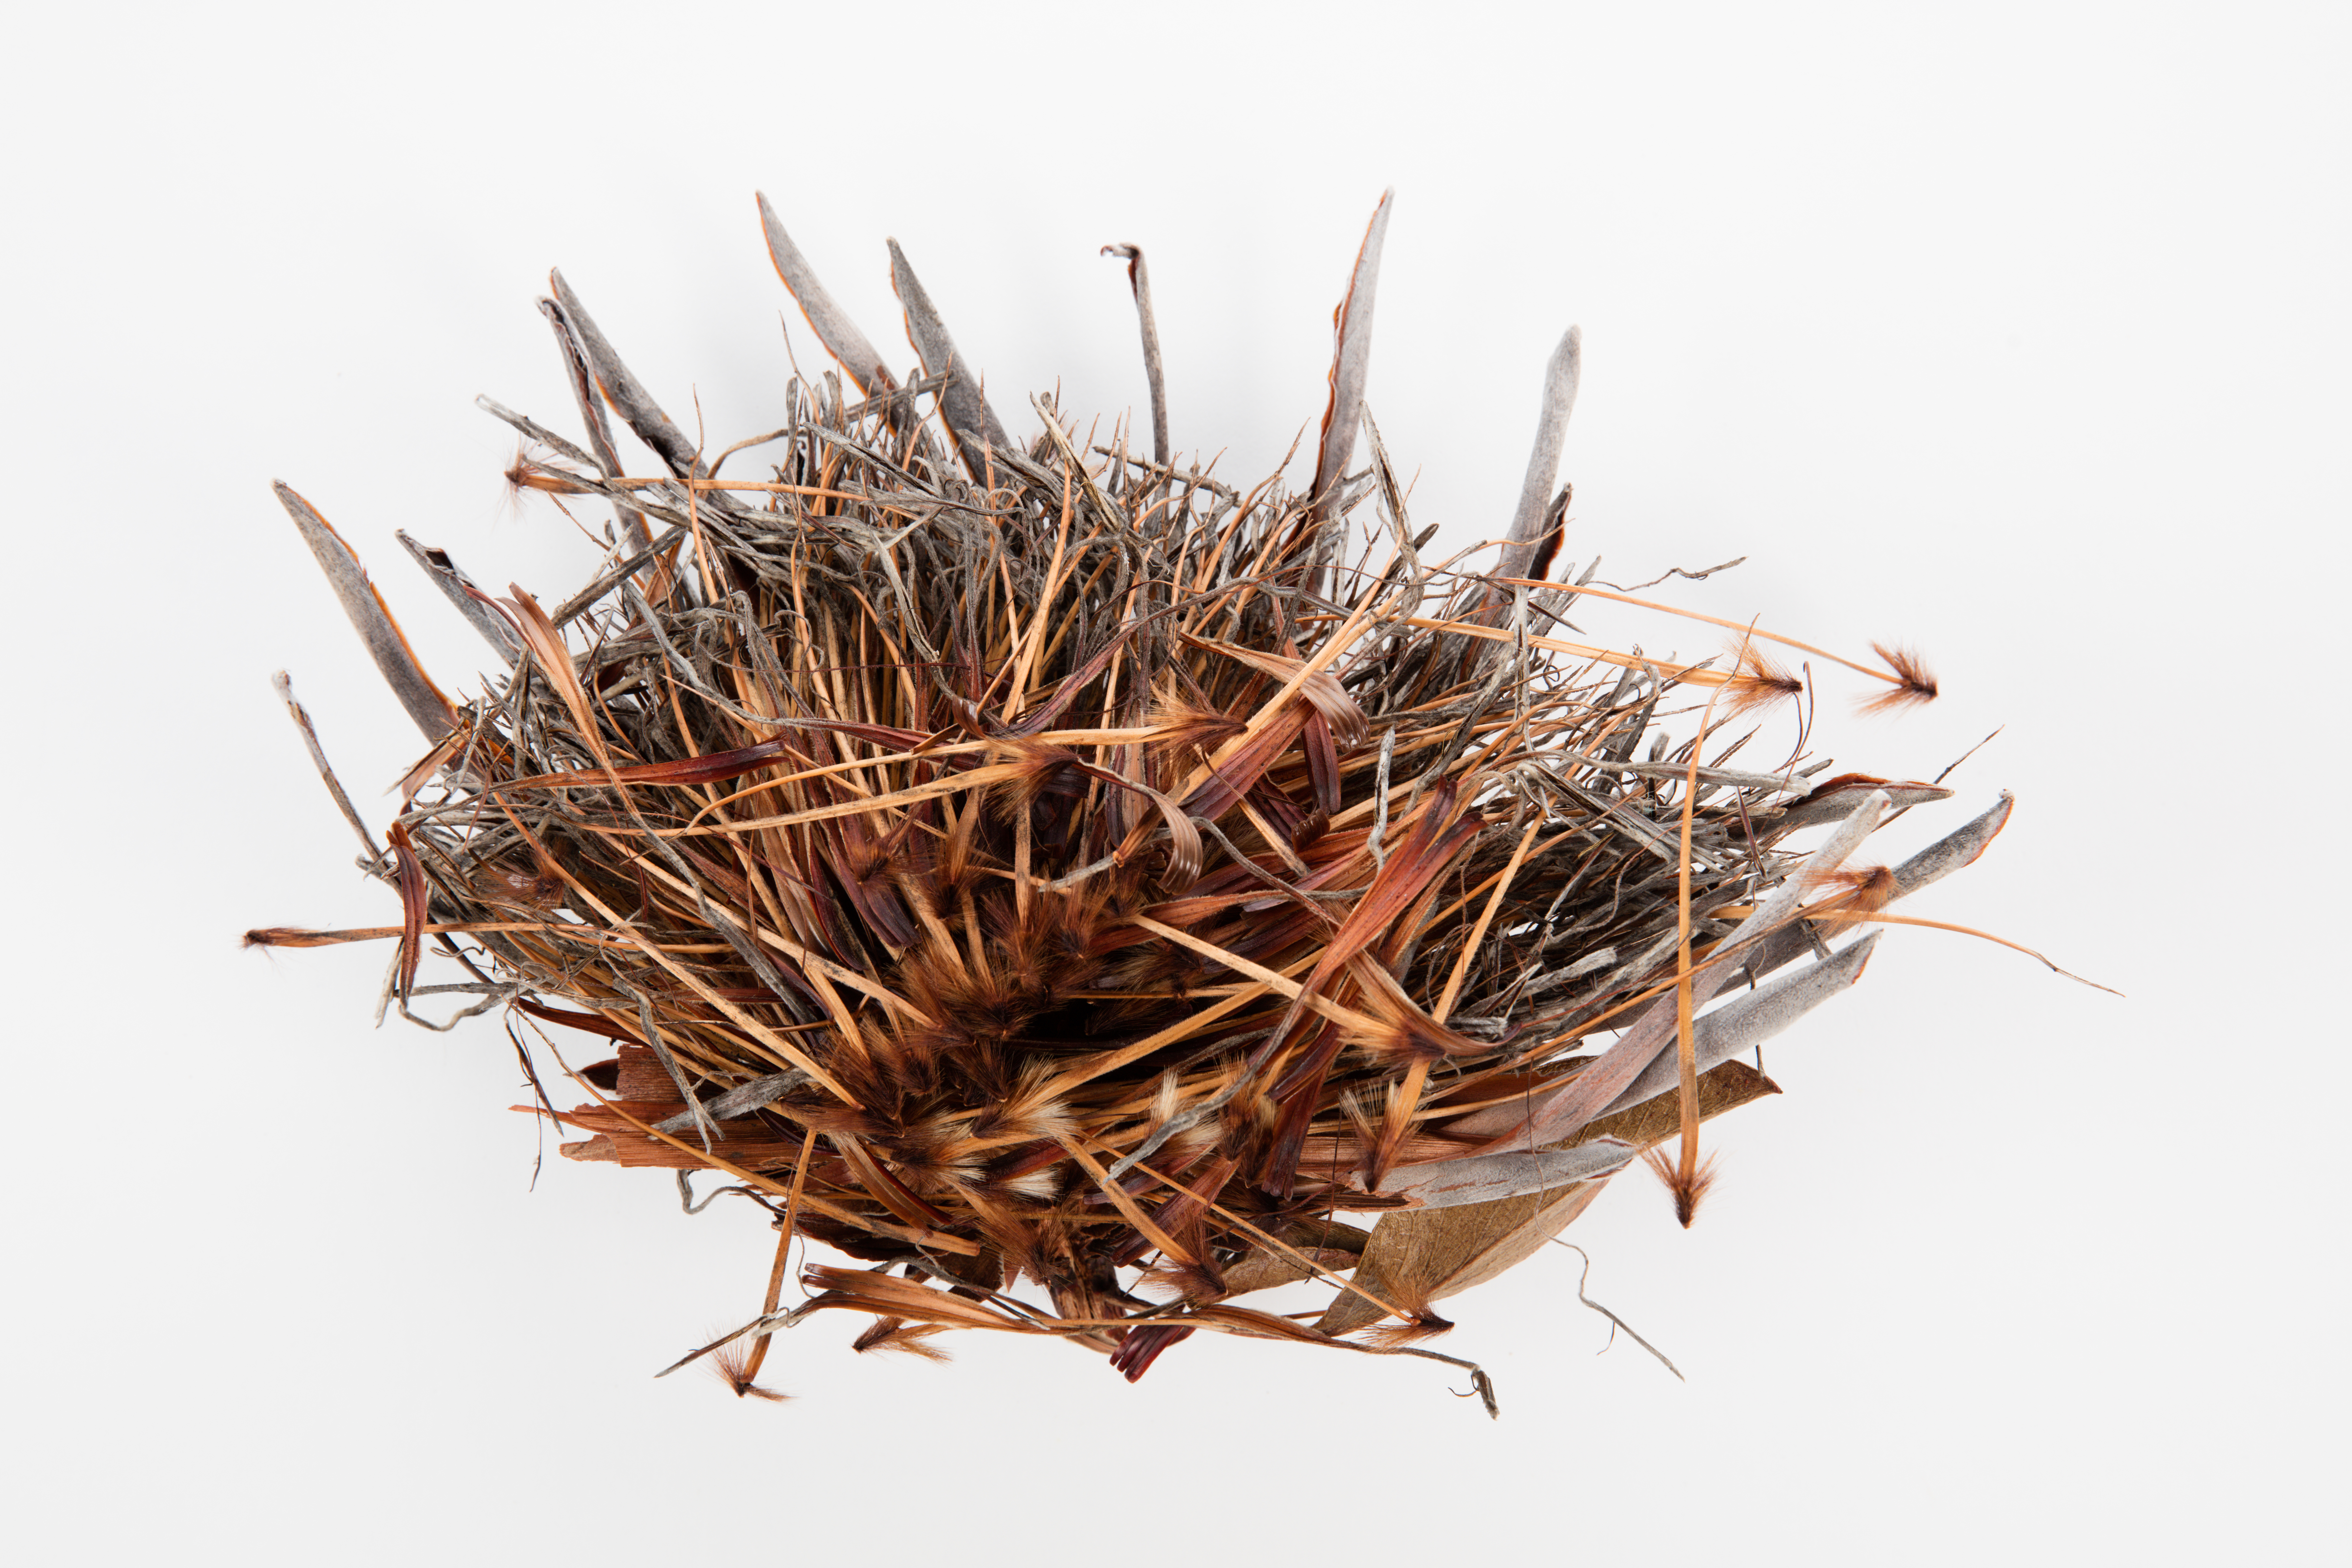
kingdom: Plantae
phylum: Tracheophyta
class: Magnoliopsida
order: Proteales
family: Proteaceae
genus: Protea
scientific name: Protea cynaroides
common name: King protea
